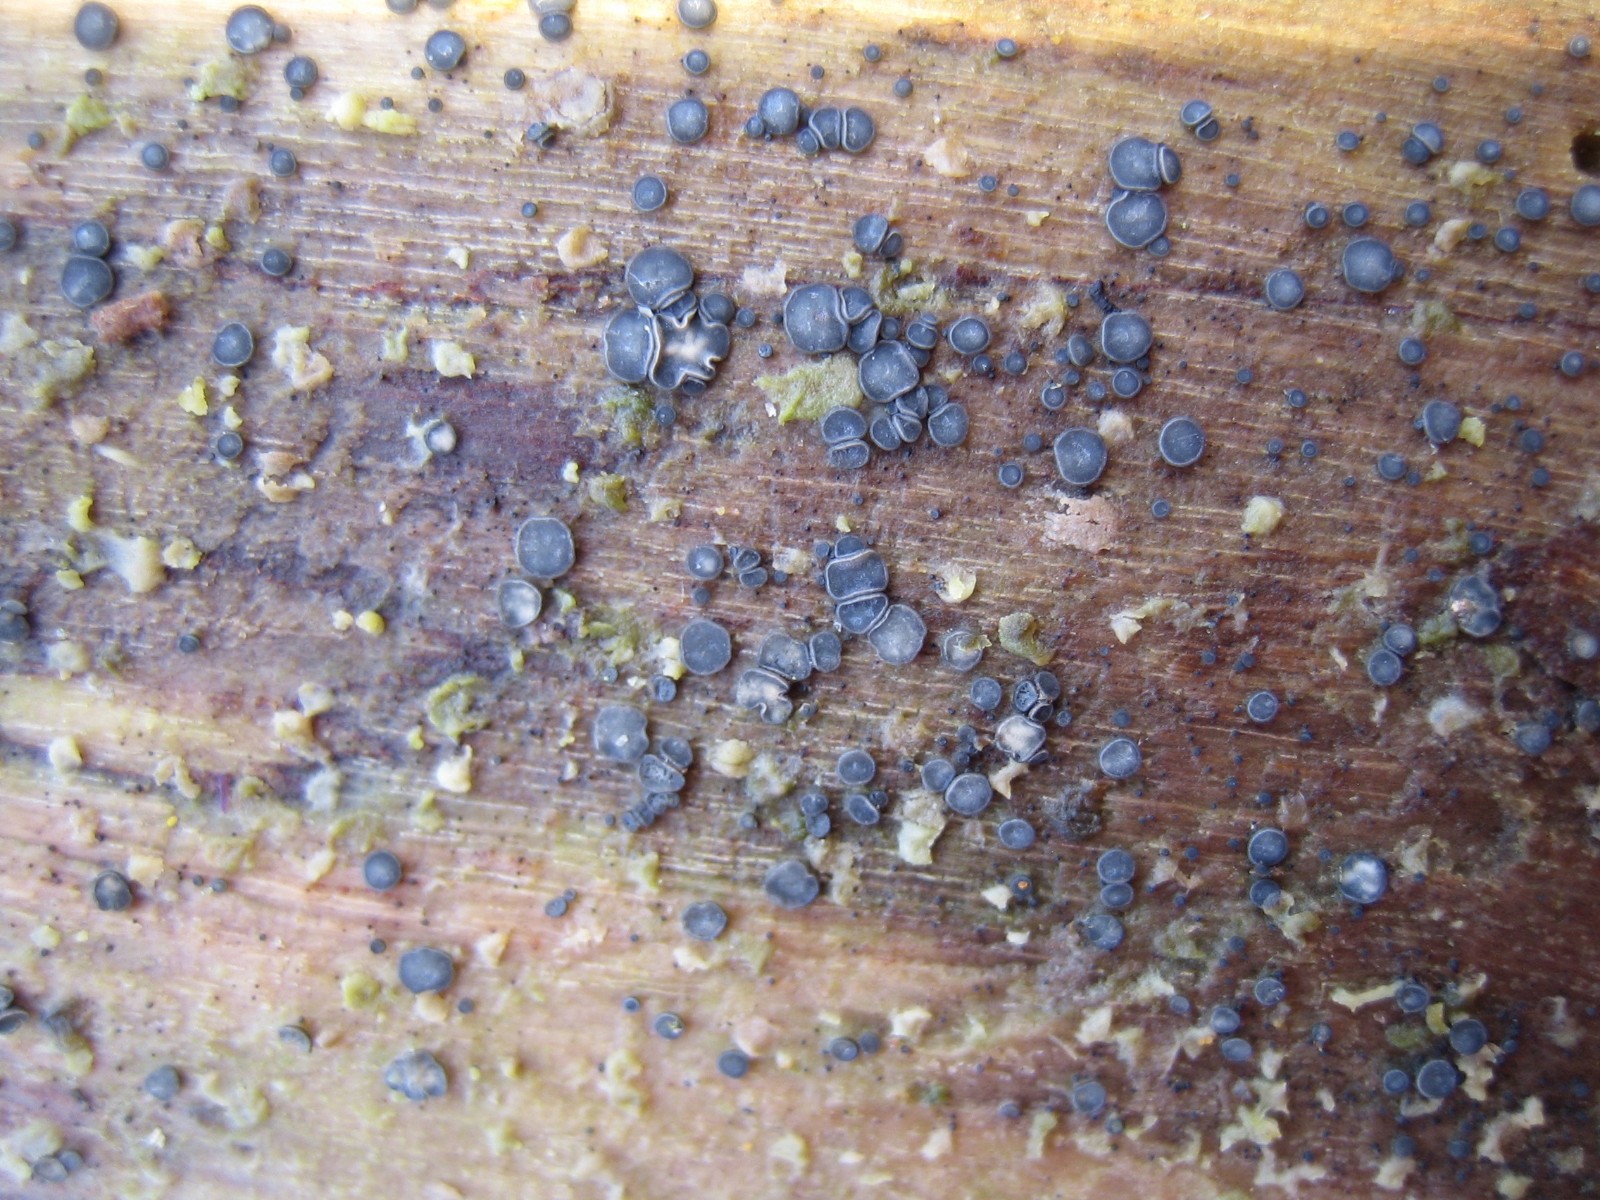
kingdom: Fungi
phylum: Ascomycota
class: Leotiomycetes
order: Helotiales
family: Mollisiaceae
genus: Mollisia
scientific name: Mollisia
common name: gråskive
